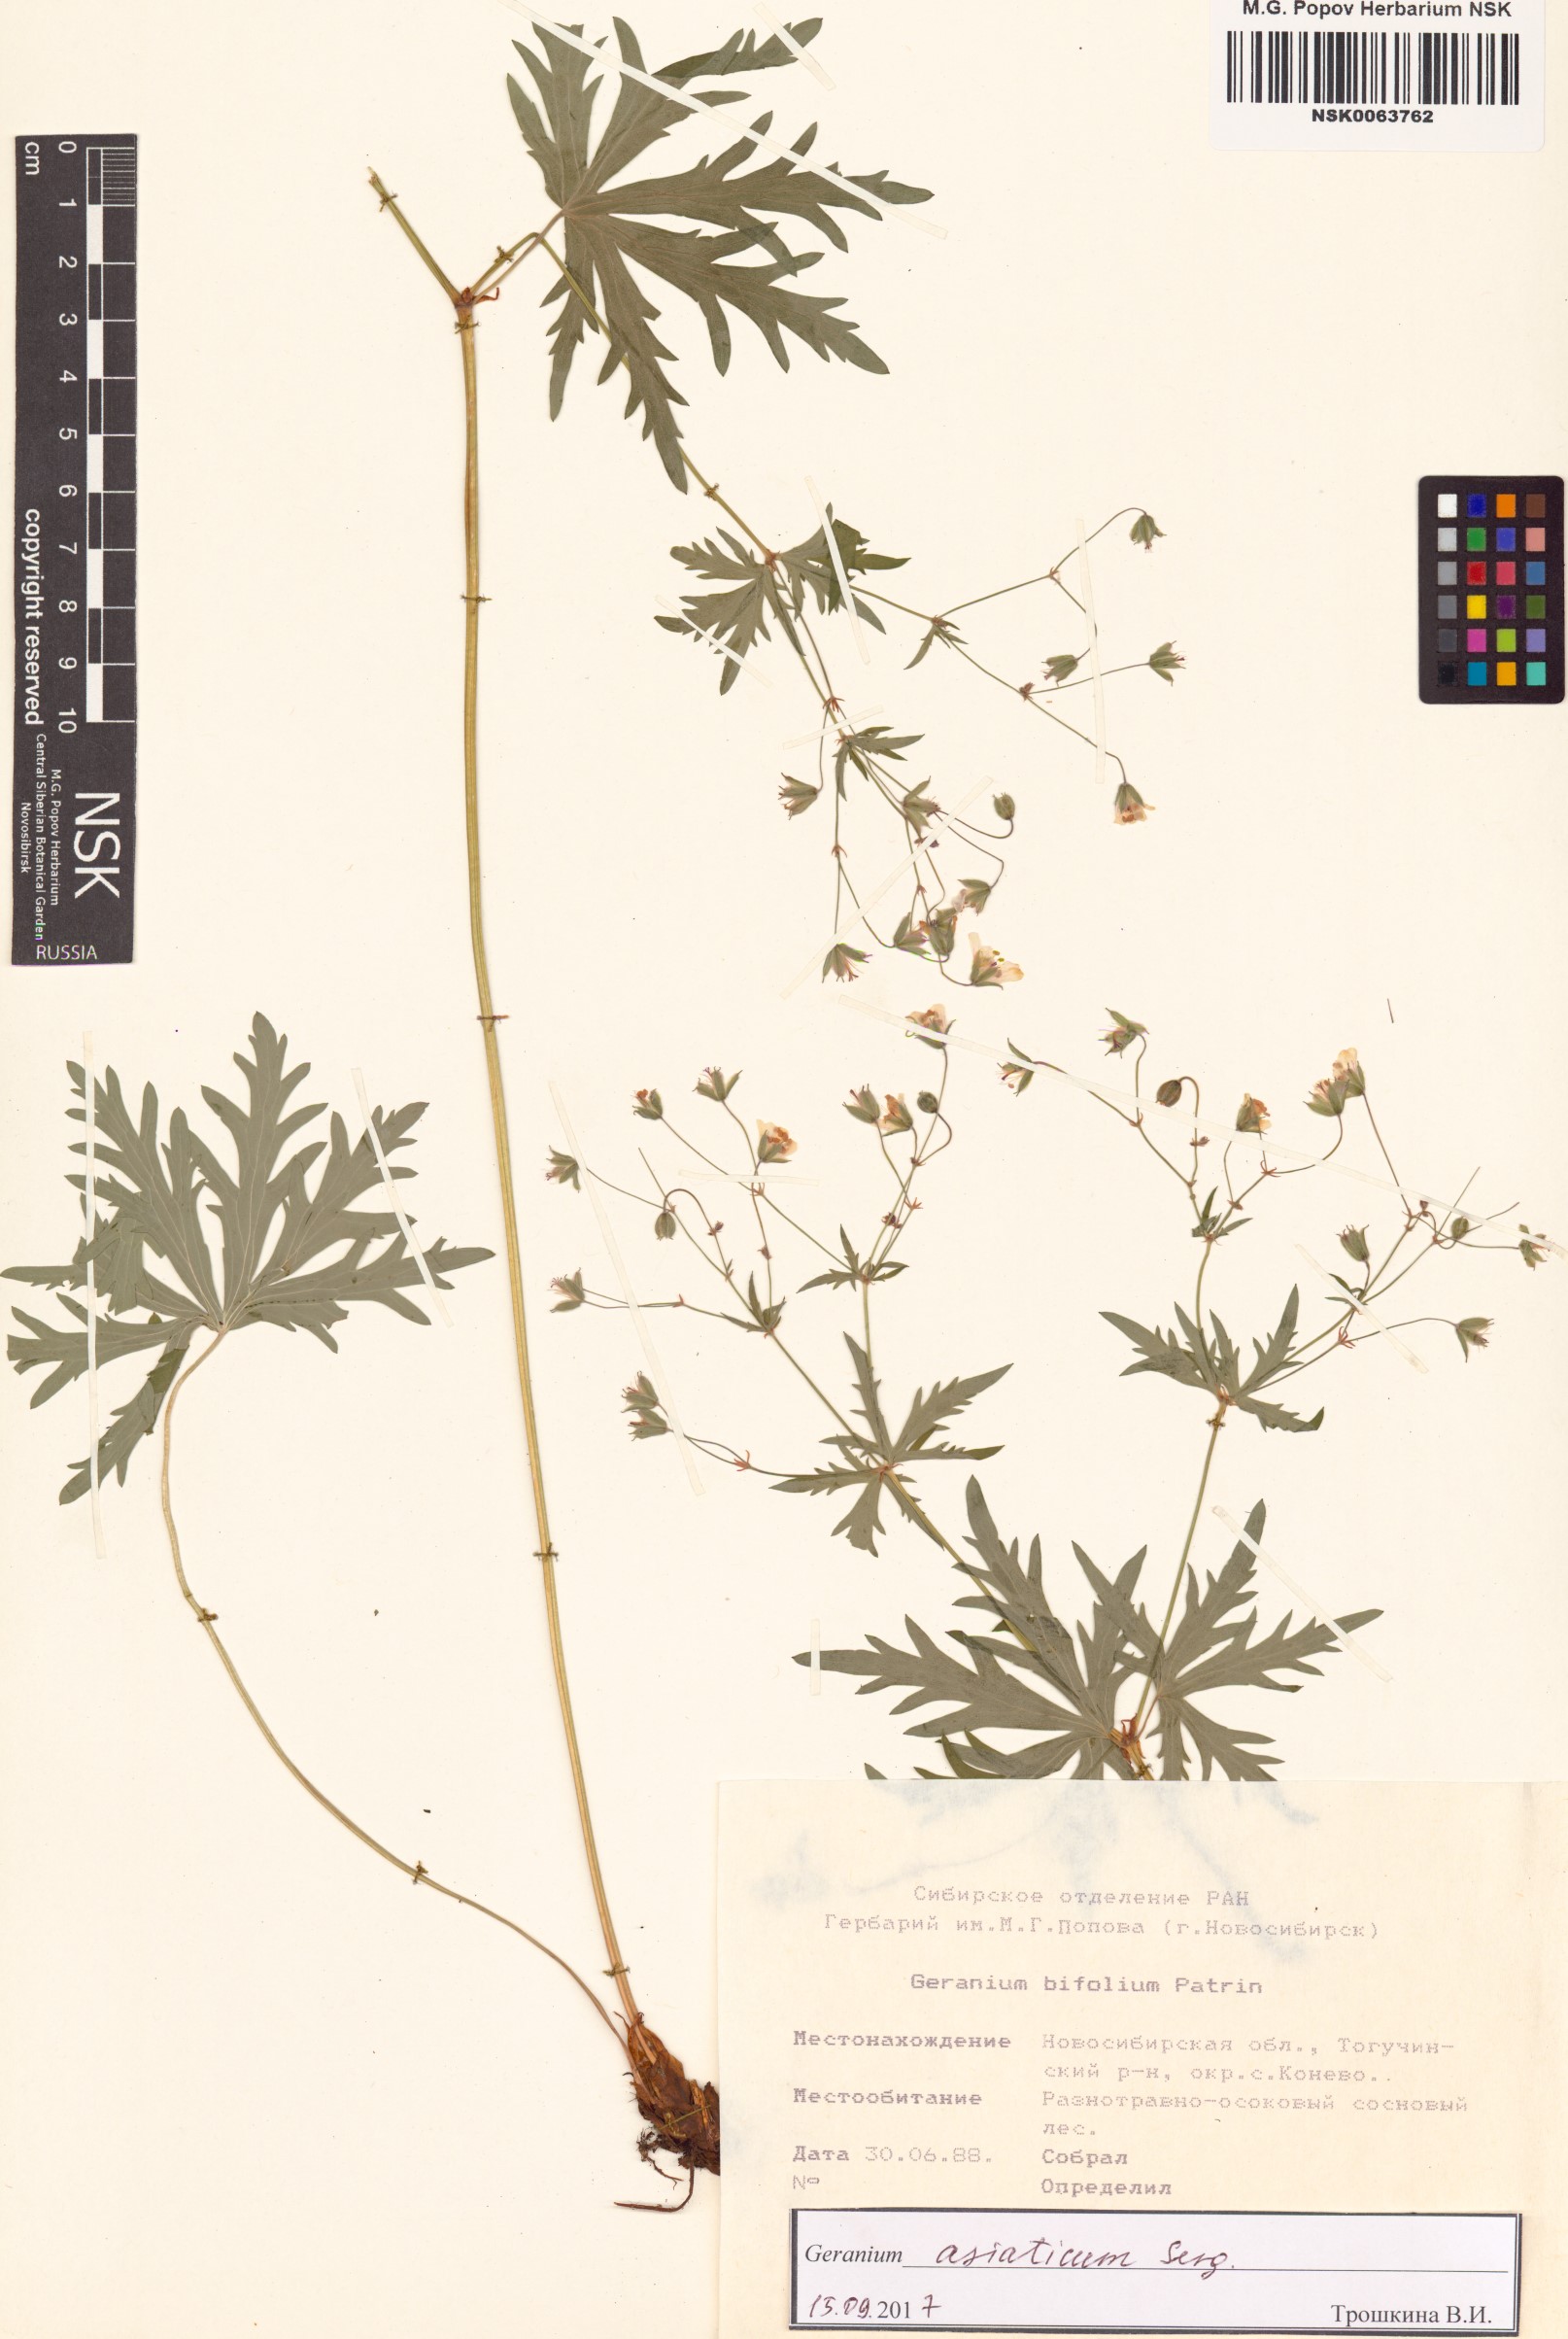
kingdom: Plantae
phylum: Tracheophyta
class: Magnoliopsida
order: Geraniales
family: Geraniaceae
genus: Geranium
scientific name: Geranium pseudosibiricum
